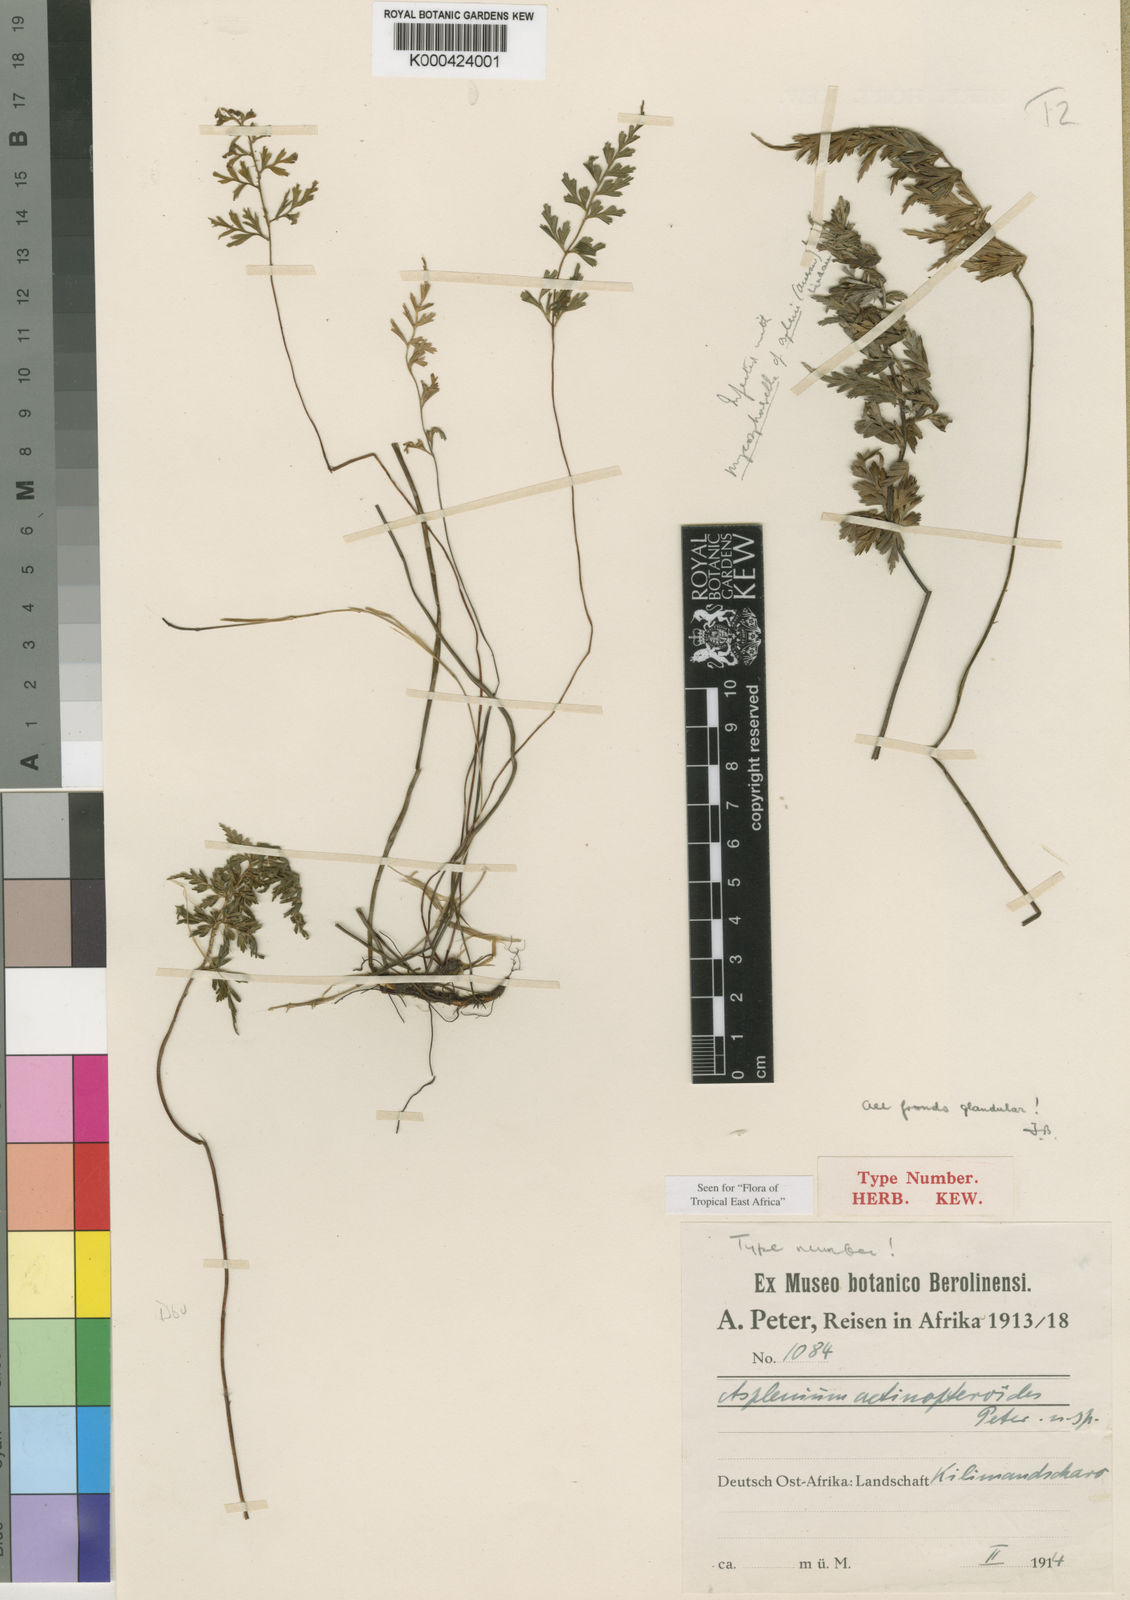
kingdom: Plantae
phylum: Tracheophyta
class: Polypodiopsida
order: Polypodiales
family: Aspleniaceae
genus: Asplenium
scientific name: Asplenium
